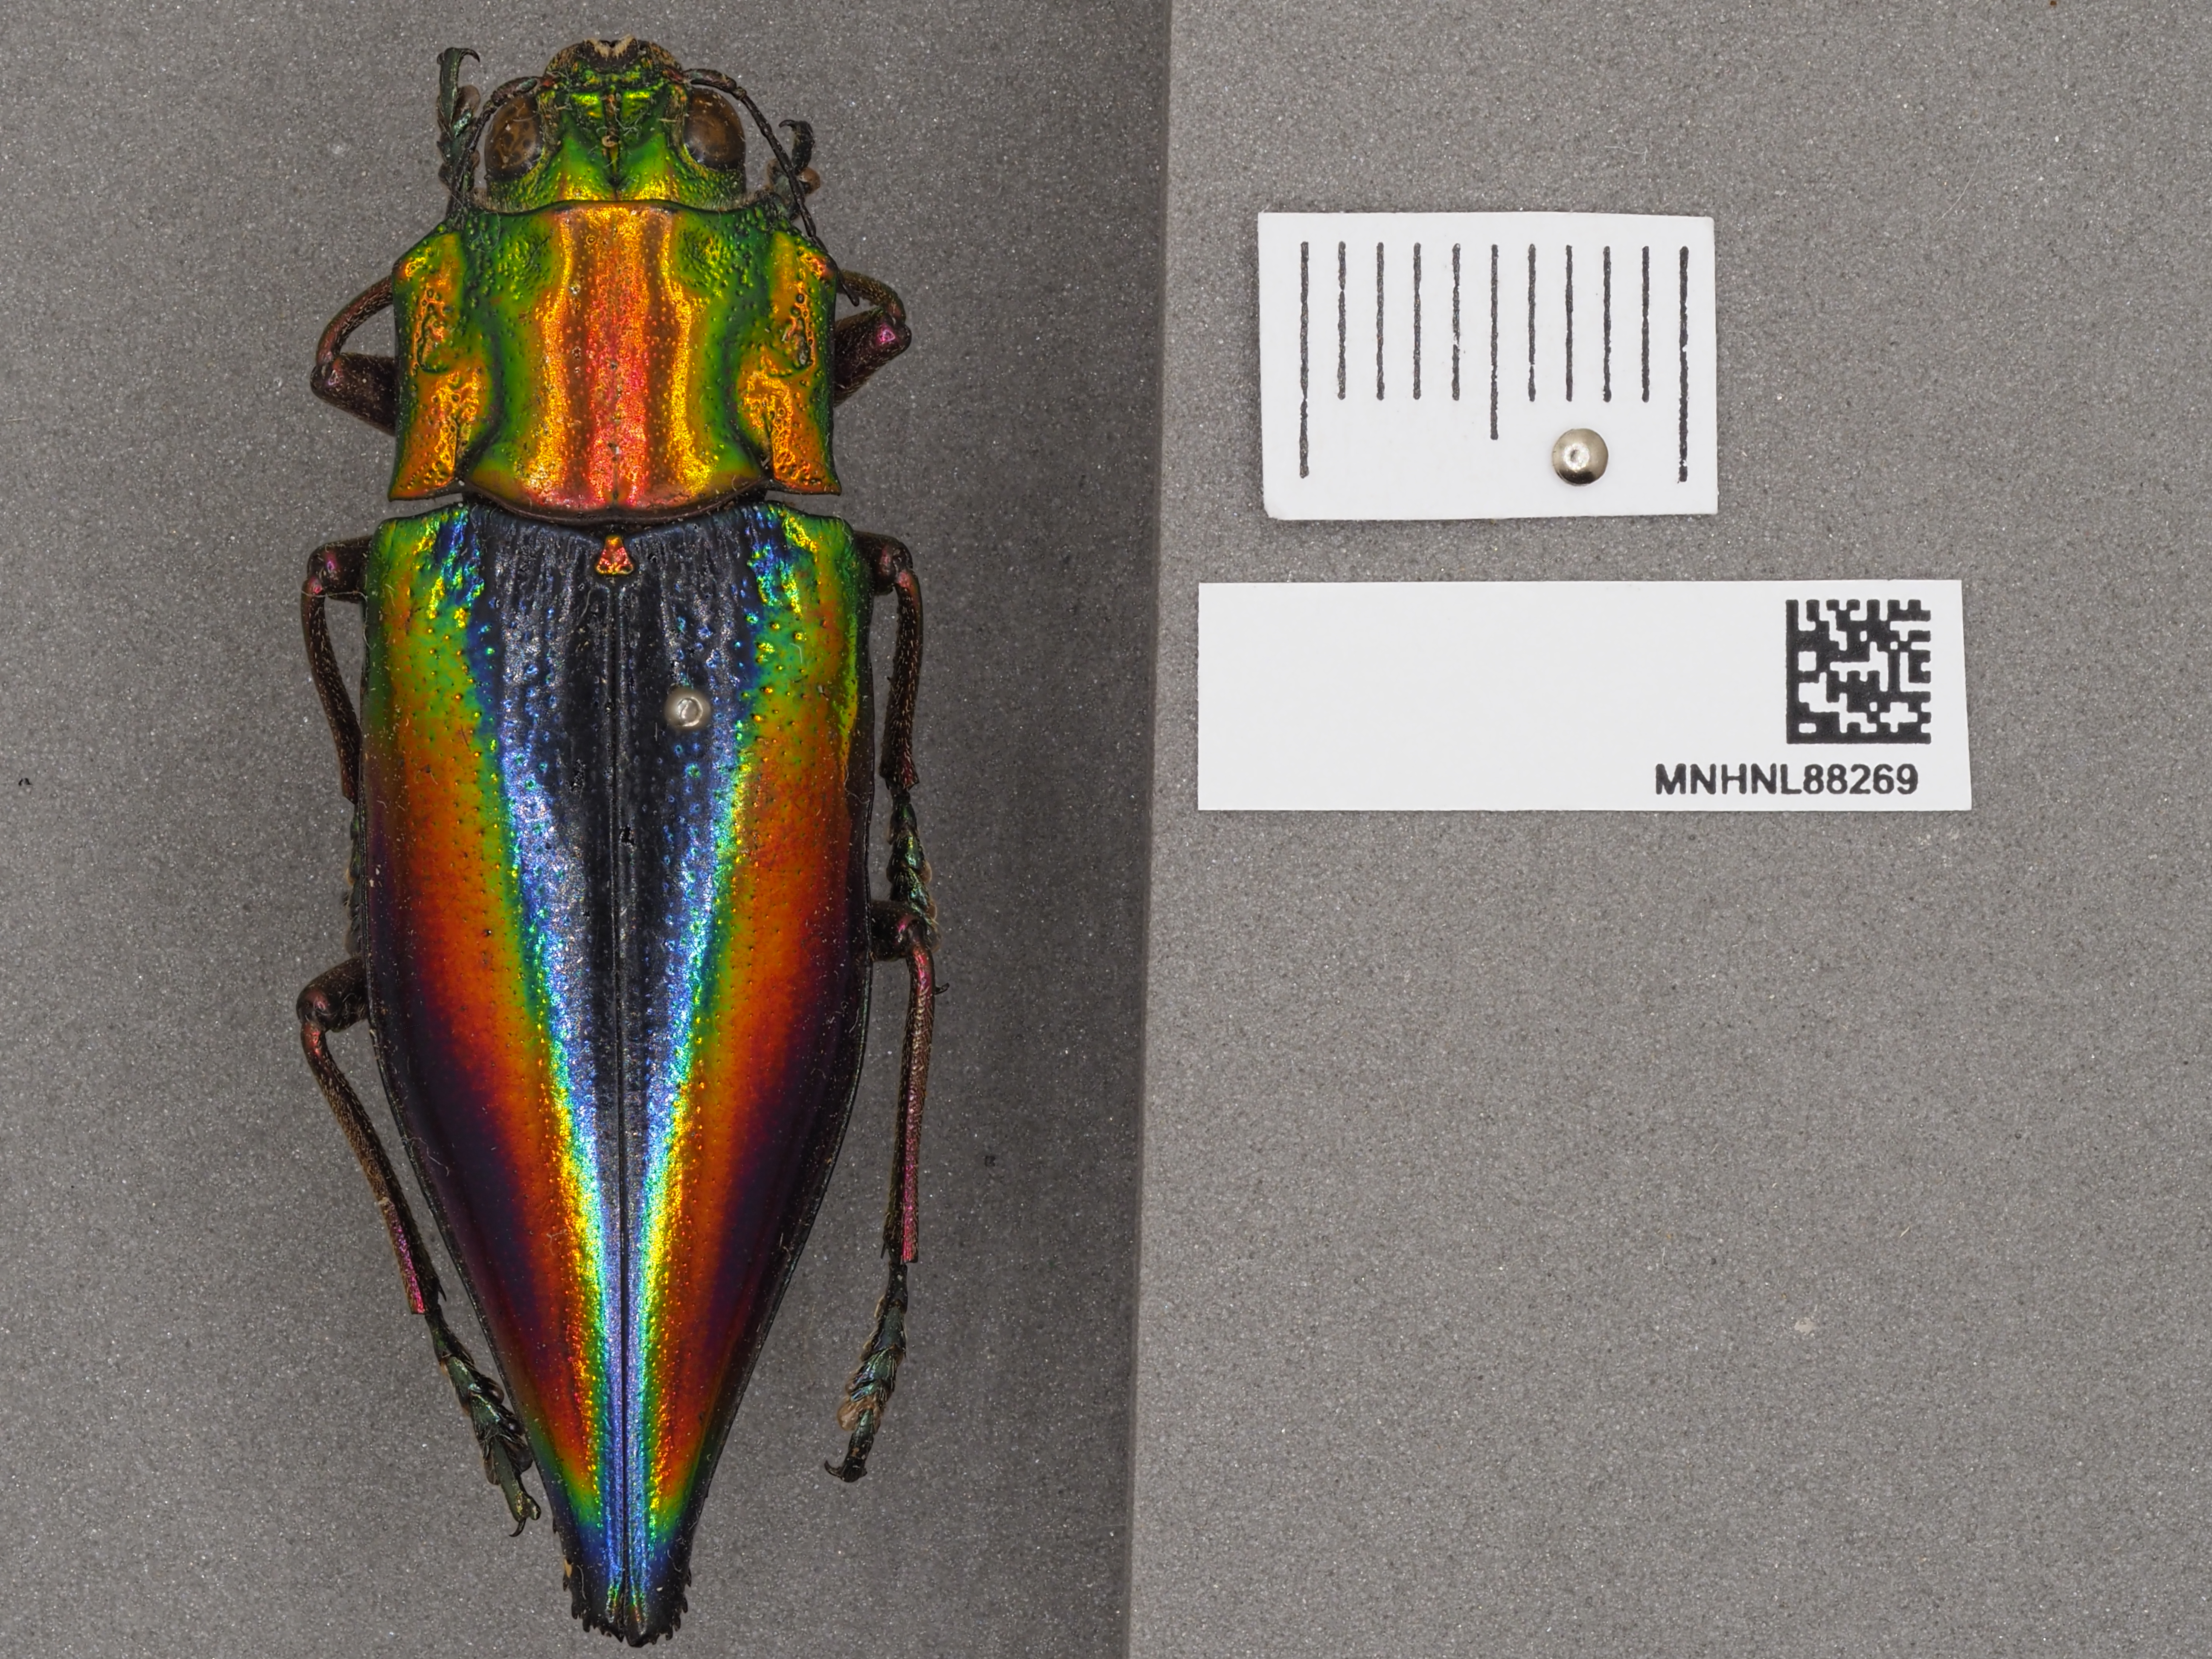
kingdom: Animalia
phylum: Arthropoda
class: Insecta
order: Coleoptera
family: Buprestidae
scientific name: Buprestidae
